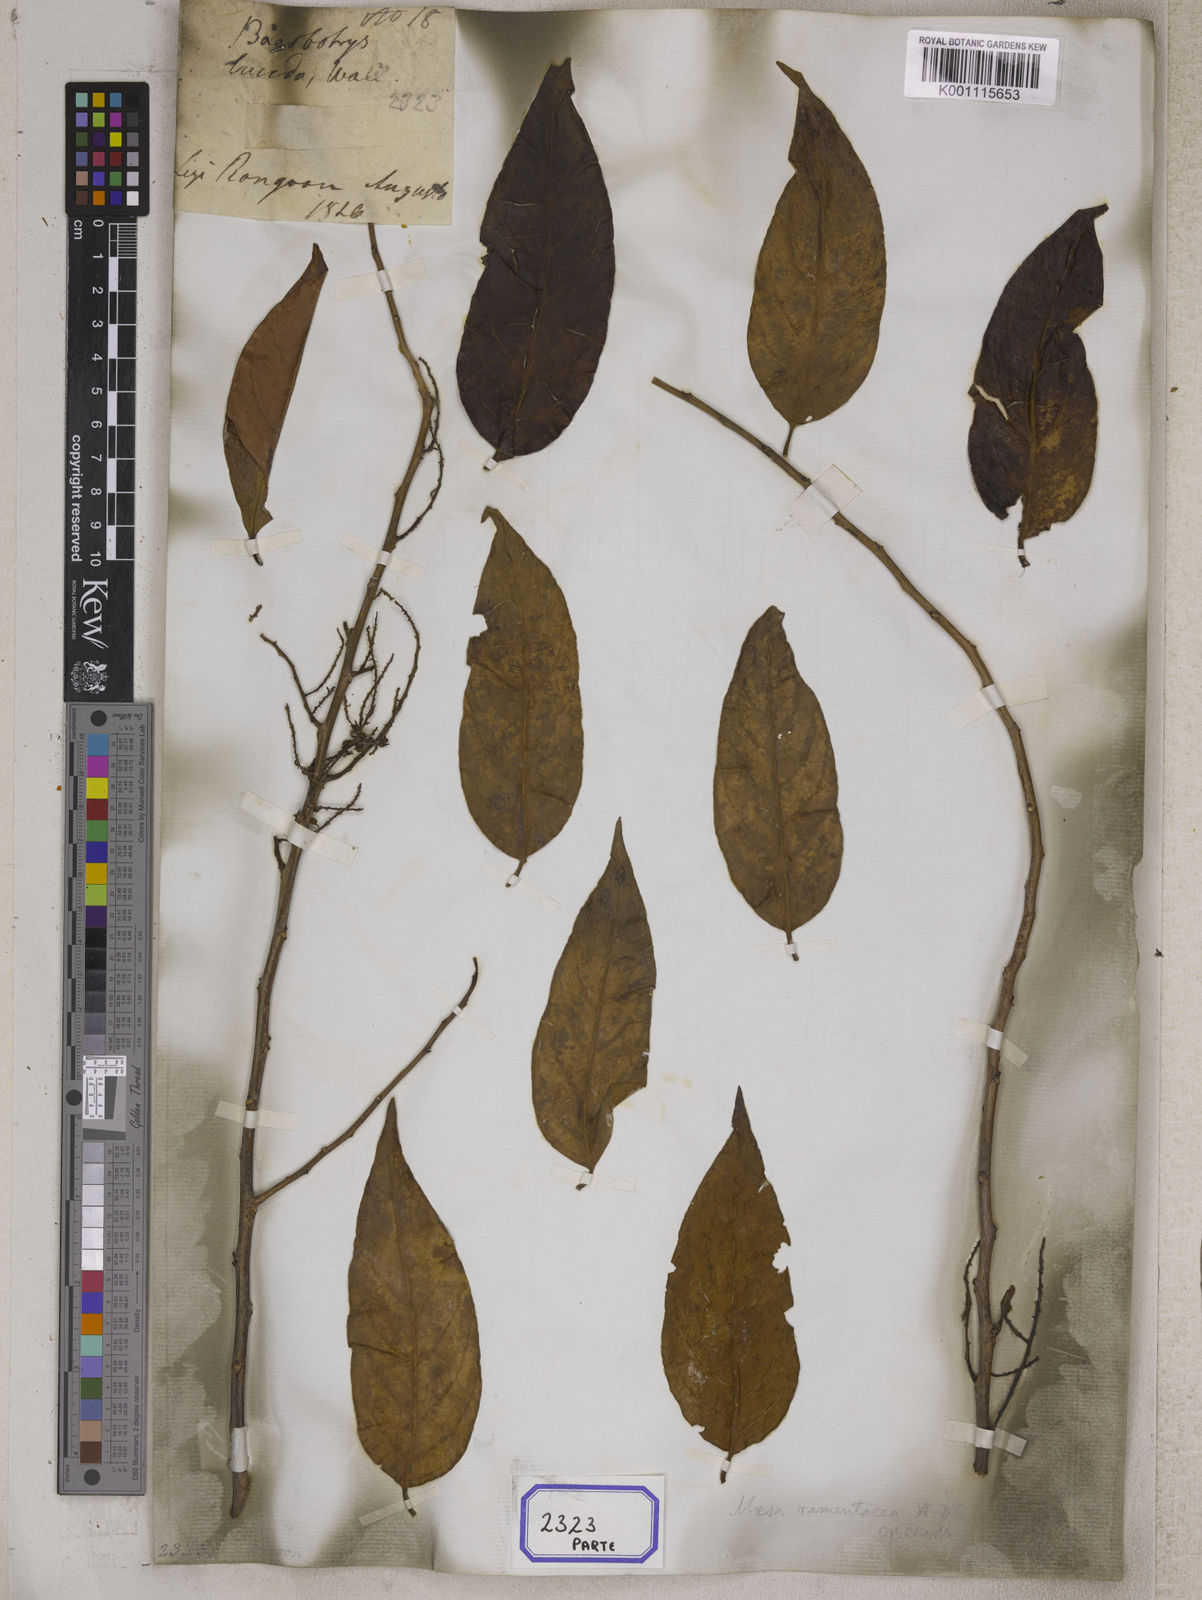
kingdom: Plantae
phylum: Tracheophyta
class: Magnoliopsida
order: Ericales
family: Primulaceae
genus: Maesa
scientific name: Maesa
